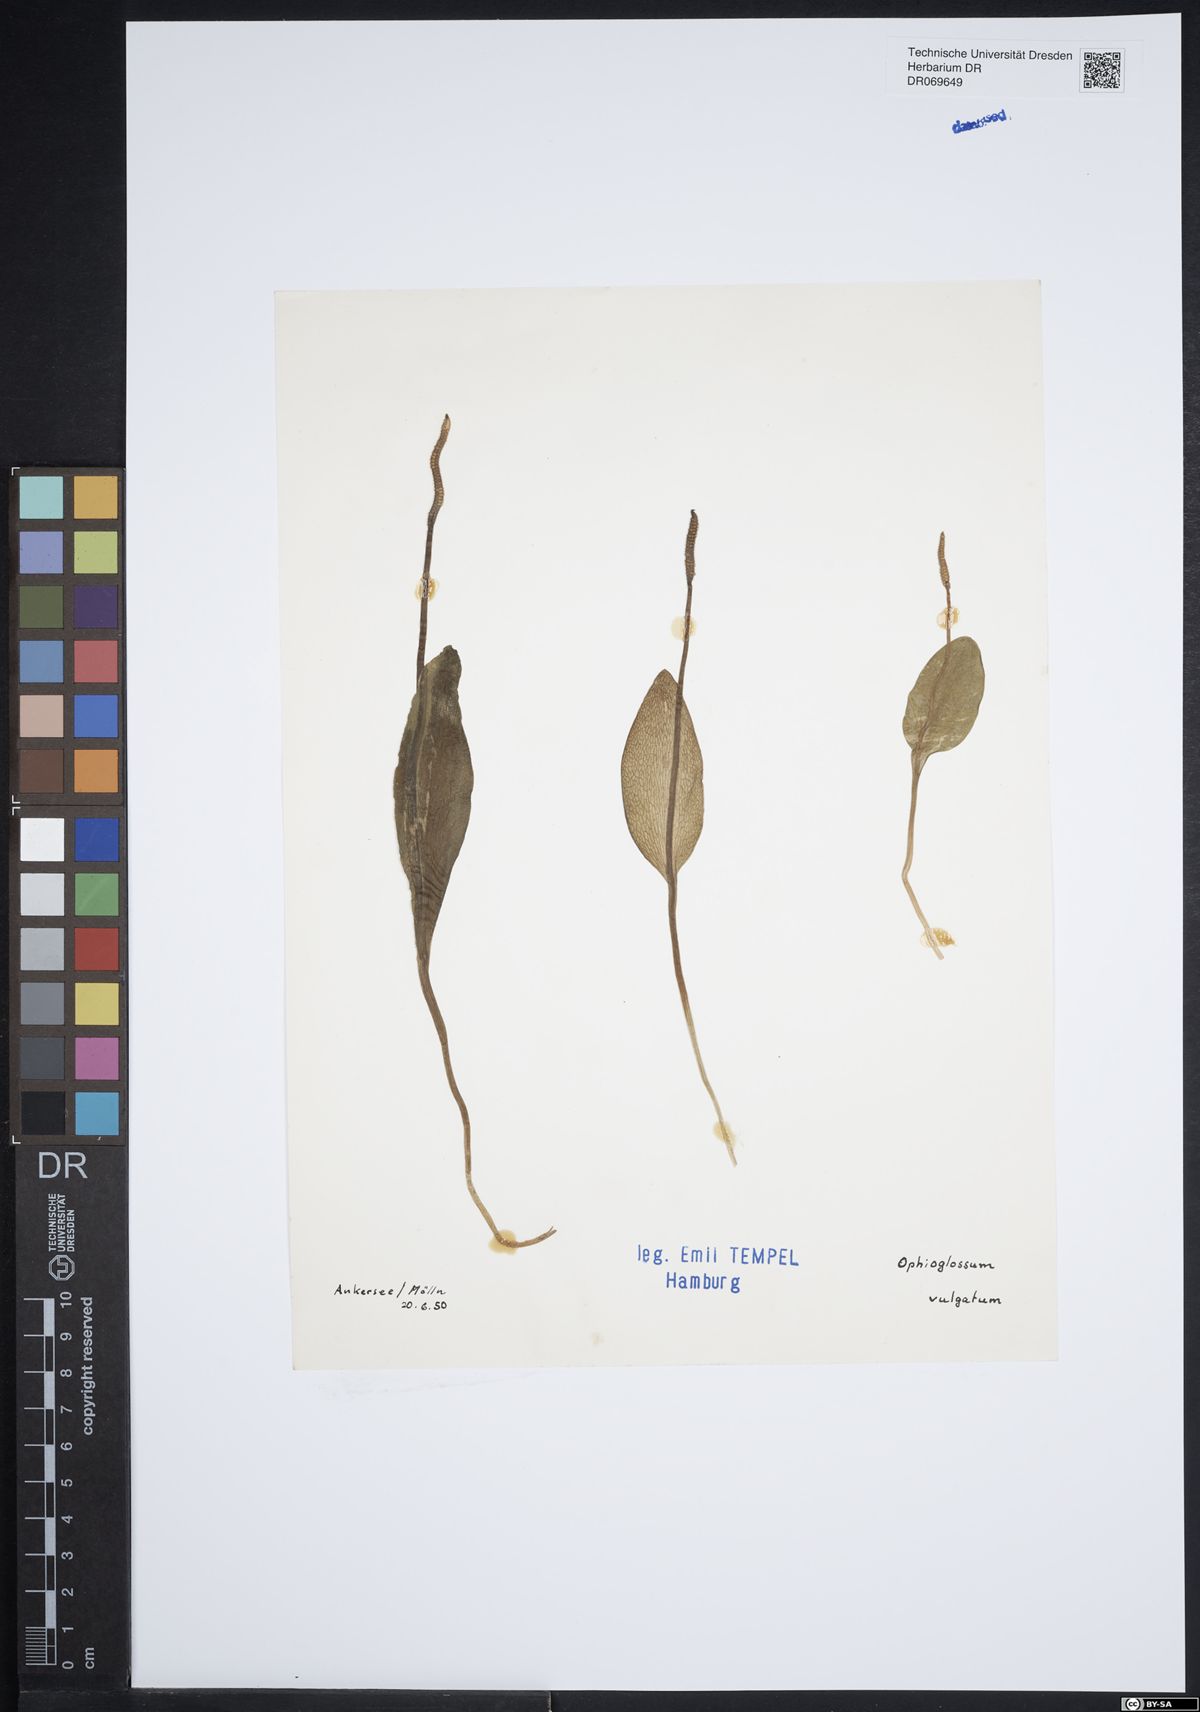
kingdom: Plantae
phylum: Tracheophyta
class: Polypodiopsida
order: Ophioglossales
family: Ophioglossaceae
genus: Ophioglossum
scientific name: Ophioglossum vulgatum
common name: Adder's-tongue
